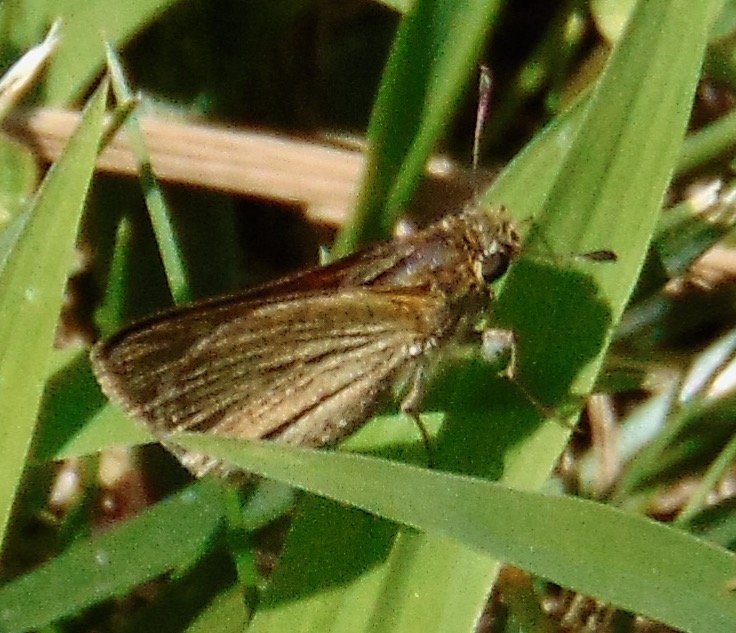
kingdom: Animalia
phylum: Arthropoda
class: Insecta
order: Lepidoptera
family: Hesperiidae
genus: Euphyes
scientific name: Euphyes vestris
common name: Dun Skipper
